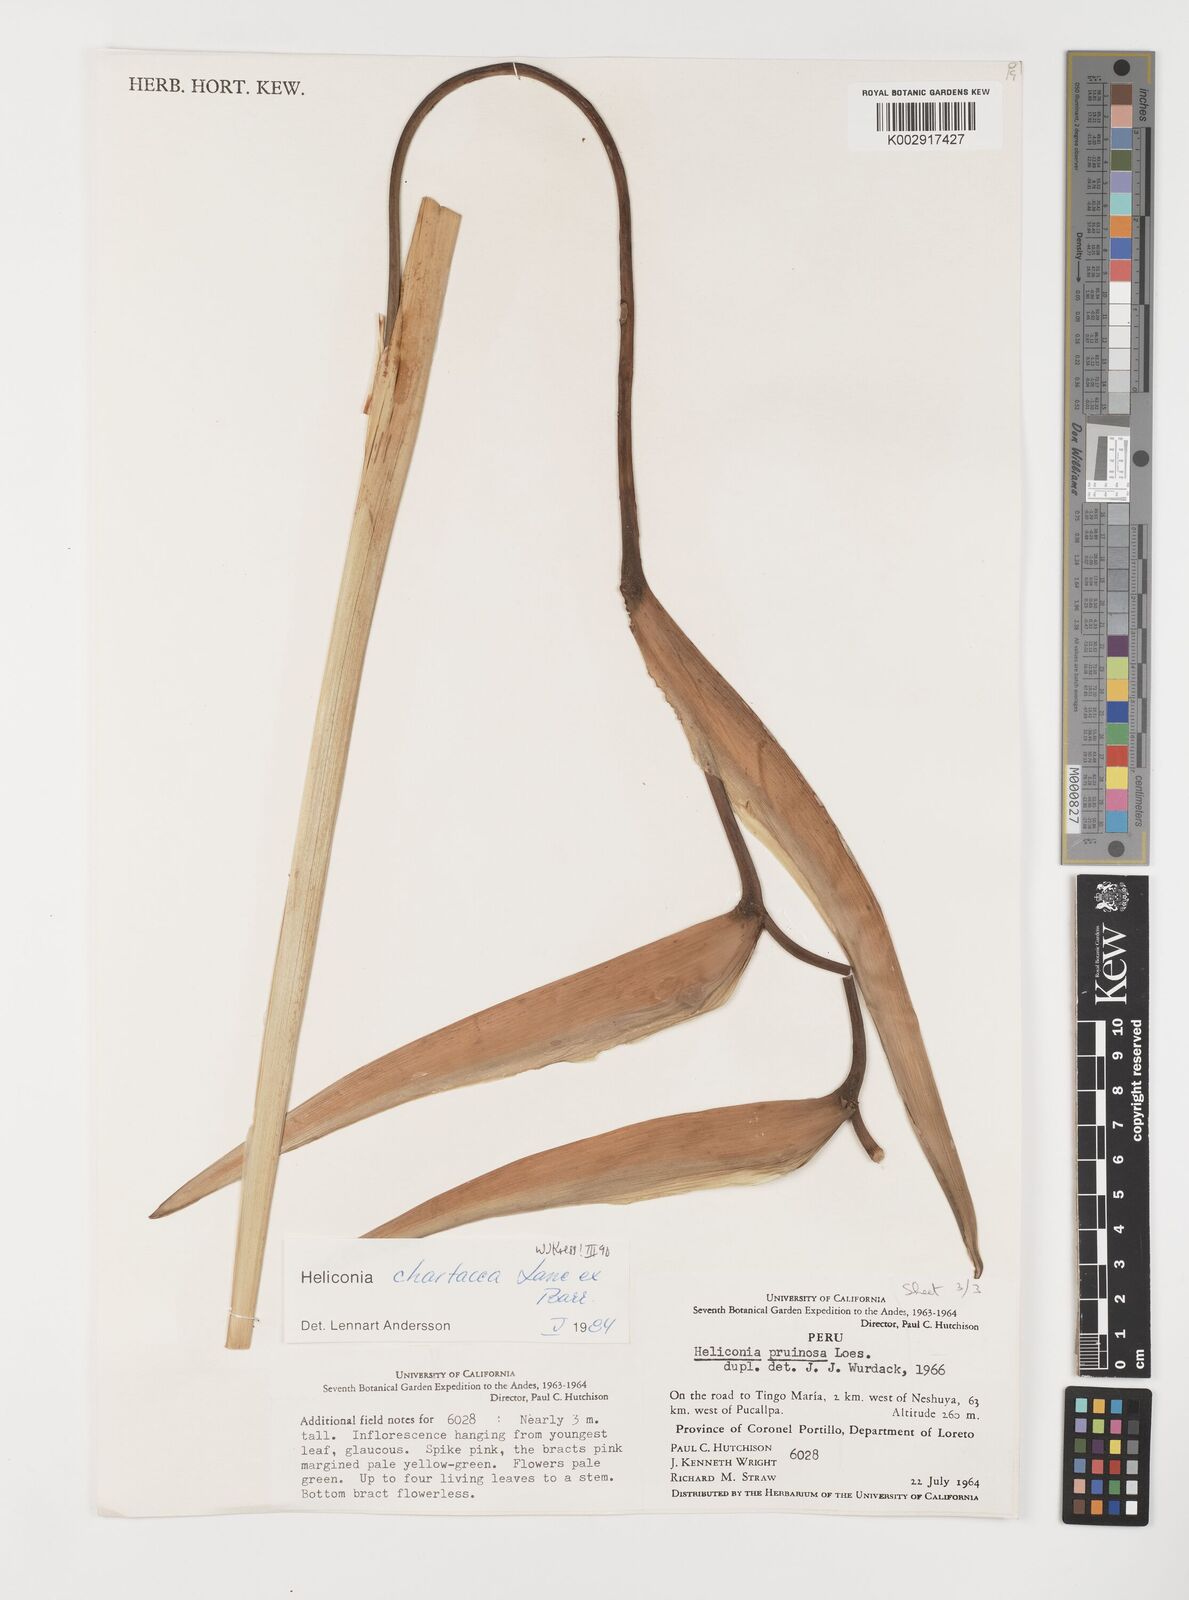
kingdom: Plantae
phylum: Tracheophyta
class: Liliopsida
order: Zingiberales
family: Heliconiaceae
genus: Heliconia
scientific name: Heliconia chartacea
